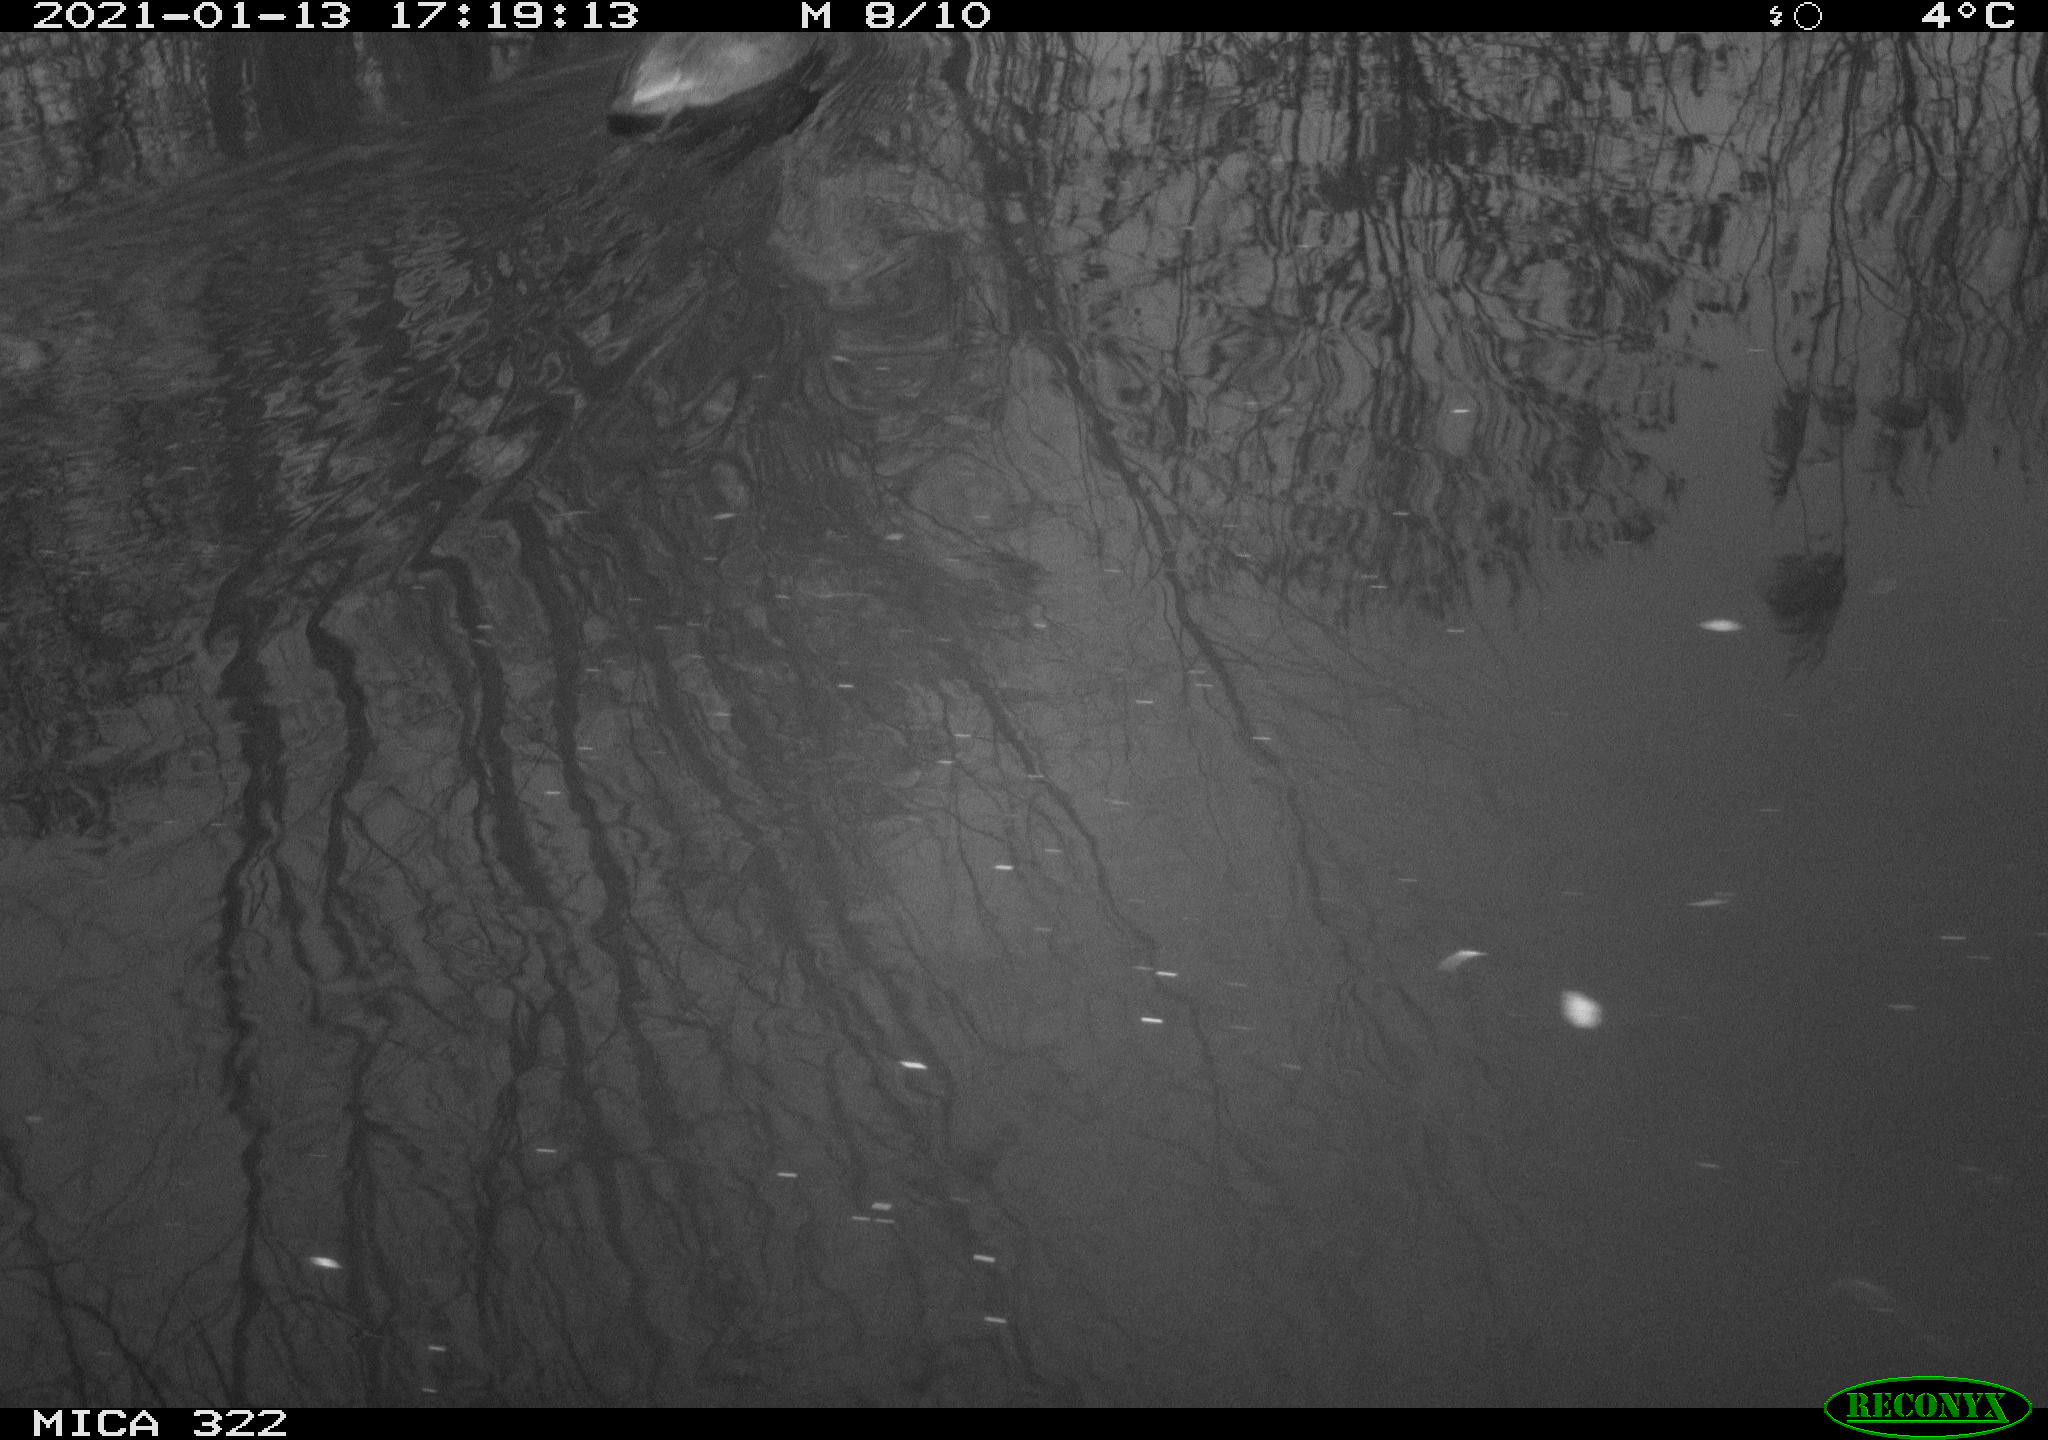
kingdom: Animalia
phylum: Chordata
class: Aves
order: Gruiformes
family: Rallidae
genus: Fulica
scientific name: Fulica atra
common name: Eurasian coot
